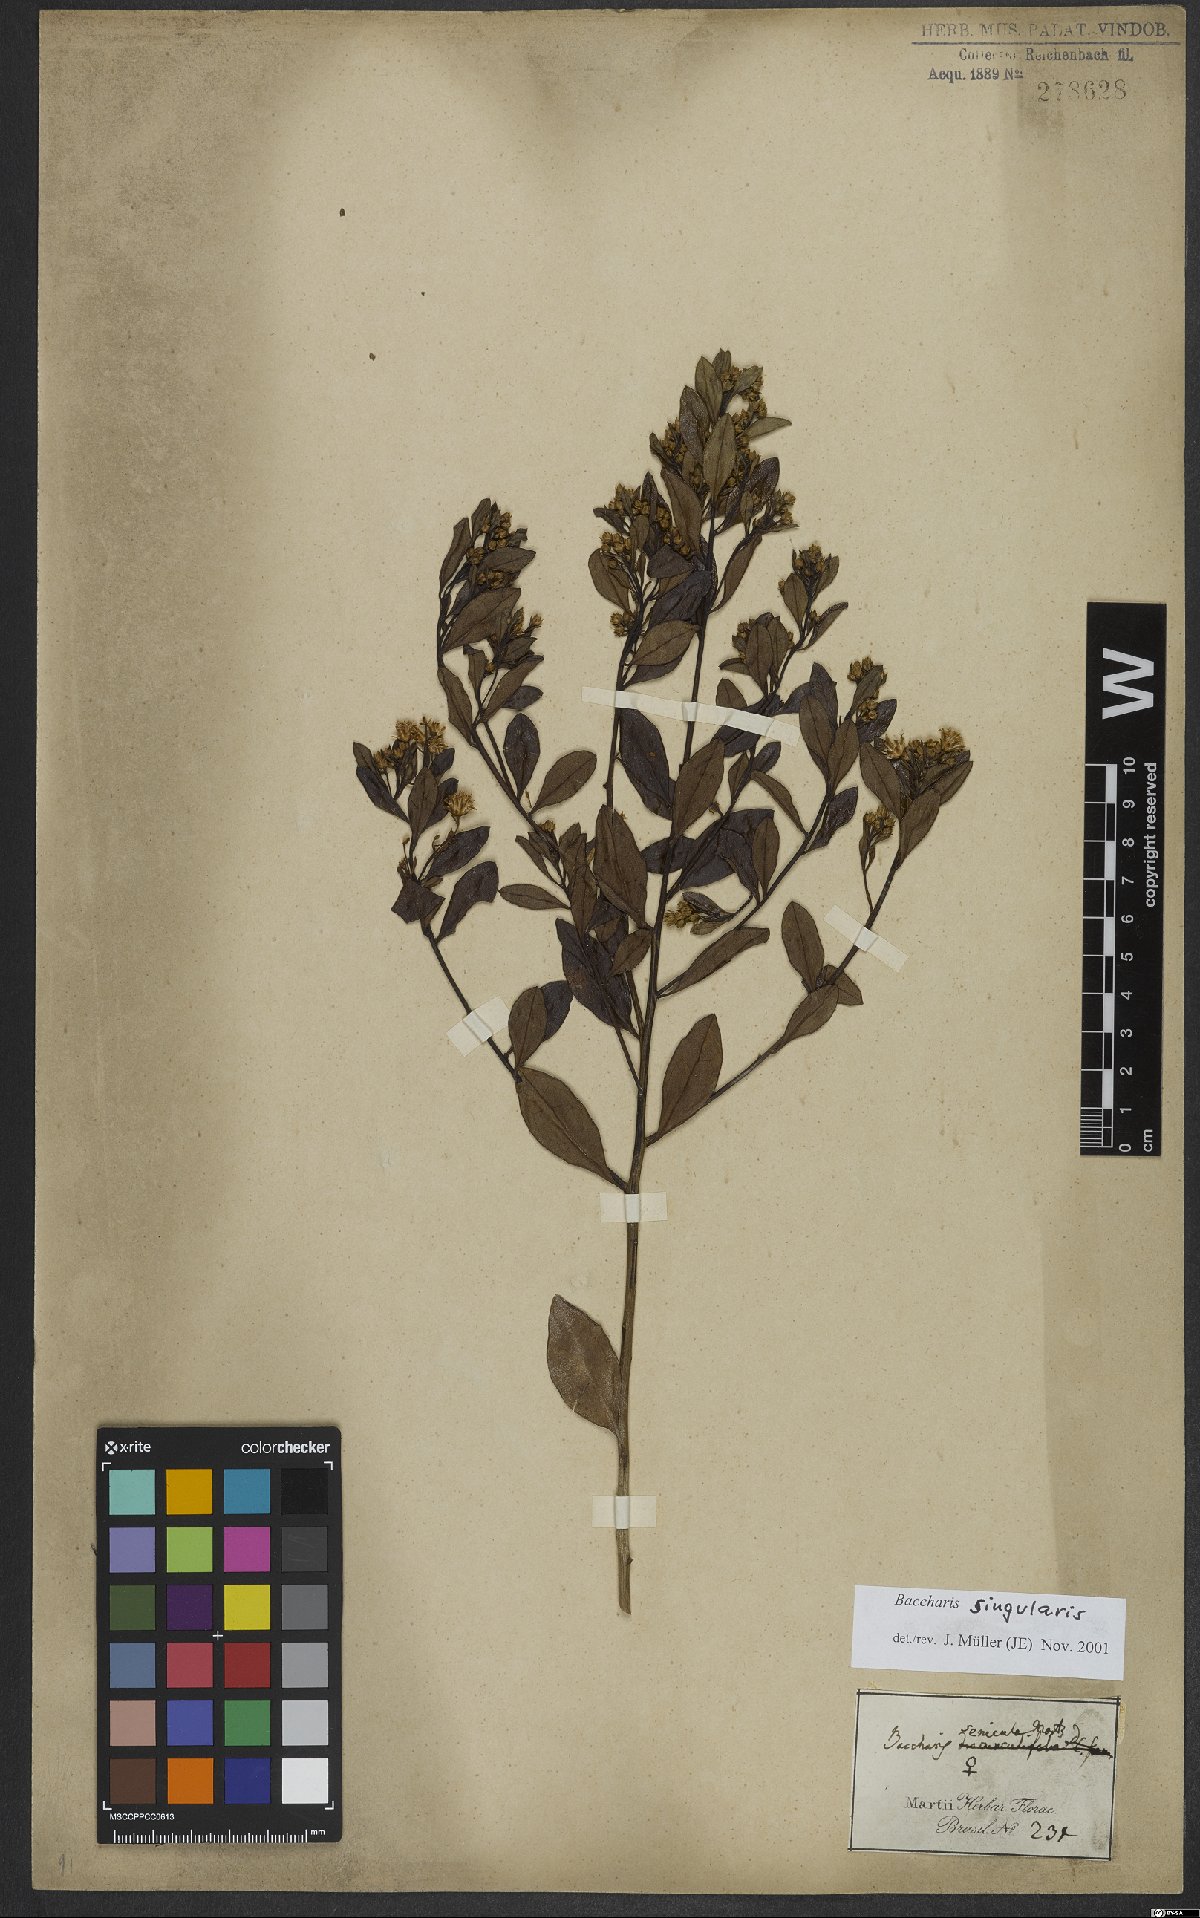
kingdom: Plantae
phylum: Tracheophyta
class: Magnoliopsida
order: Asterales
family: Asteraceae
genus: Baccharis
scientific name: Baccharis singularis
